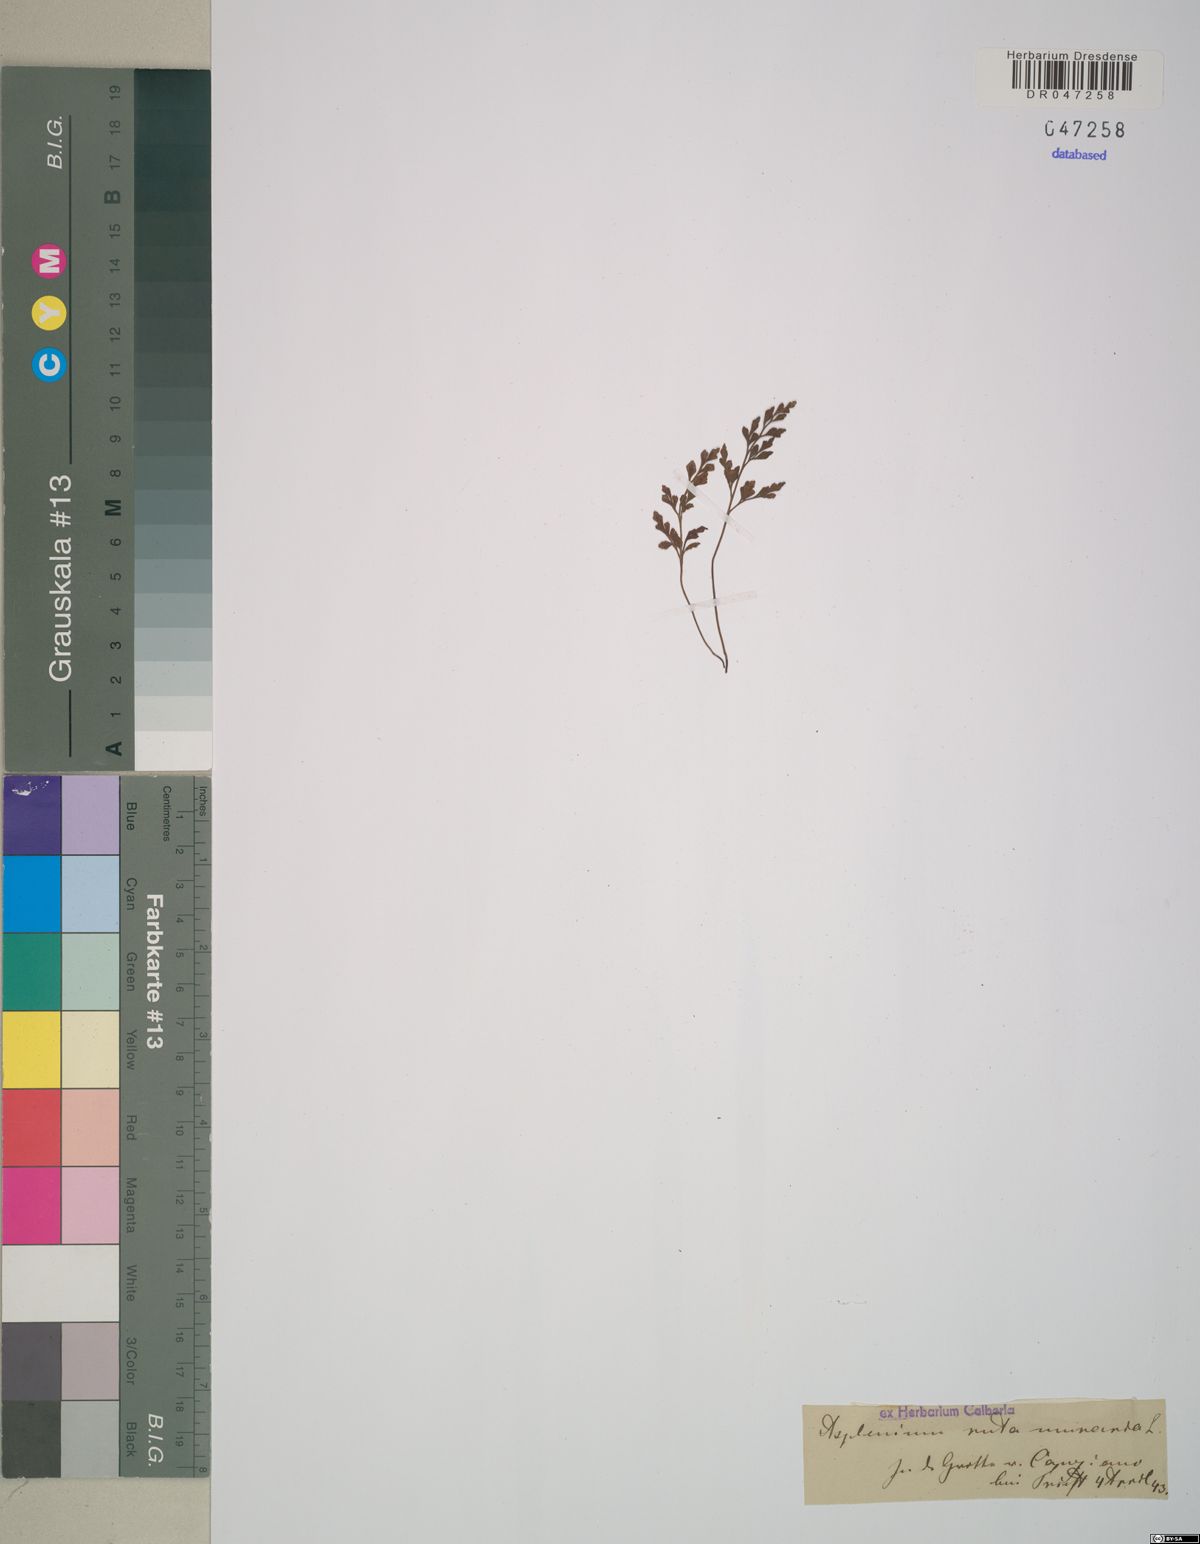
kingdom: Plantae
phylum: Tracheophyta
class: Polypodiopsida
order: Polypodiales
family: Aspleniaceae
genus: Asplenium
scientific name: Asplenium ruta-muraria
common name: Wall-rue
